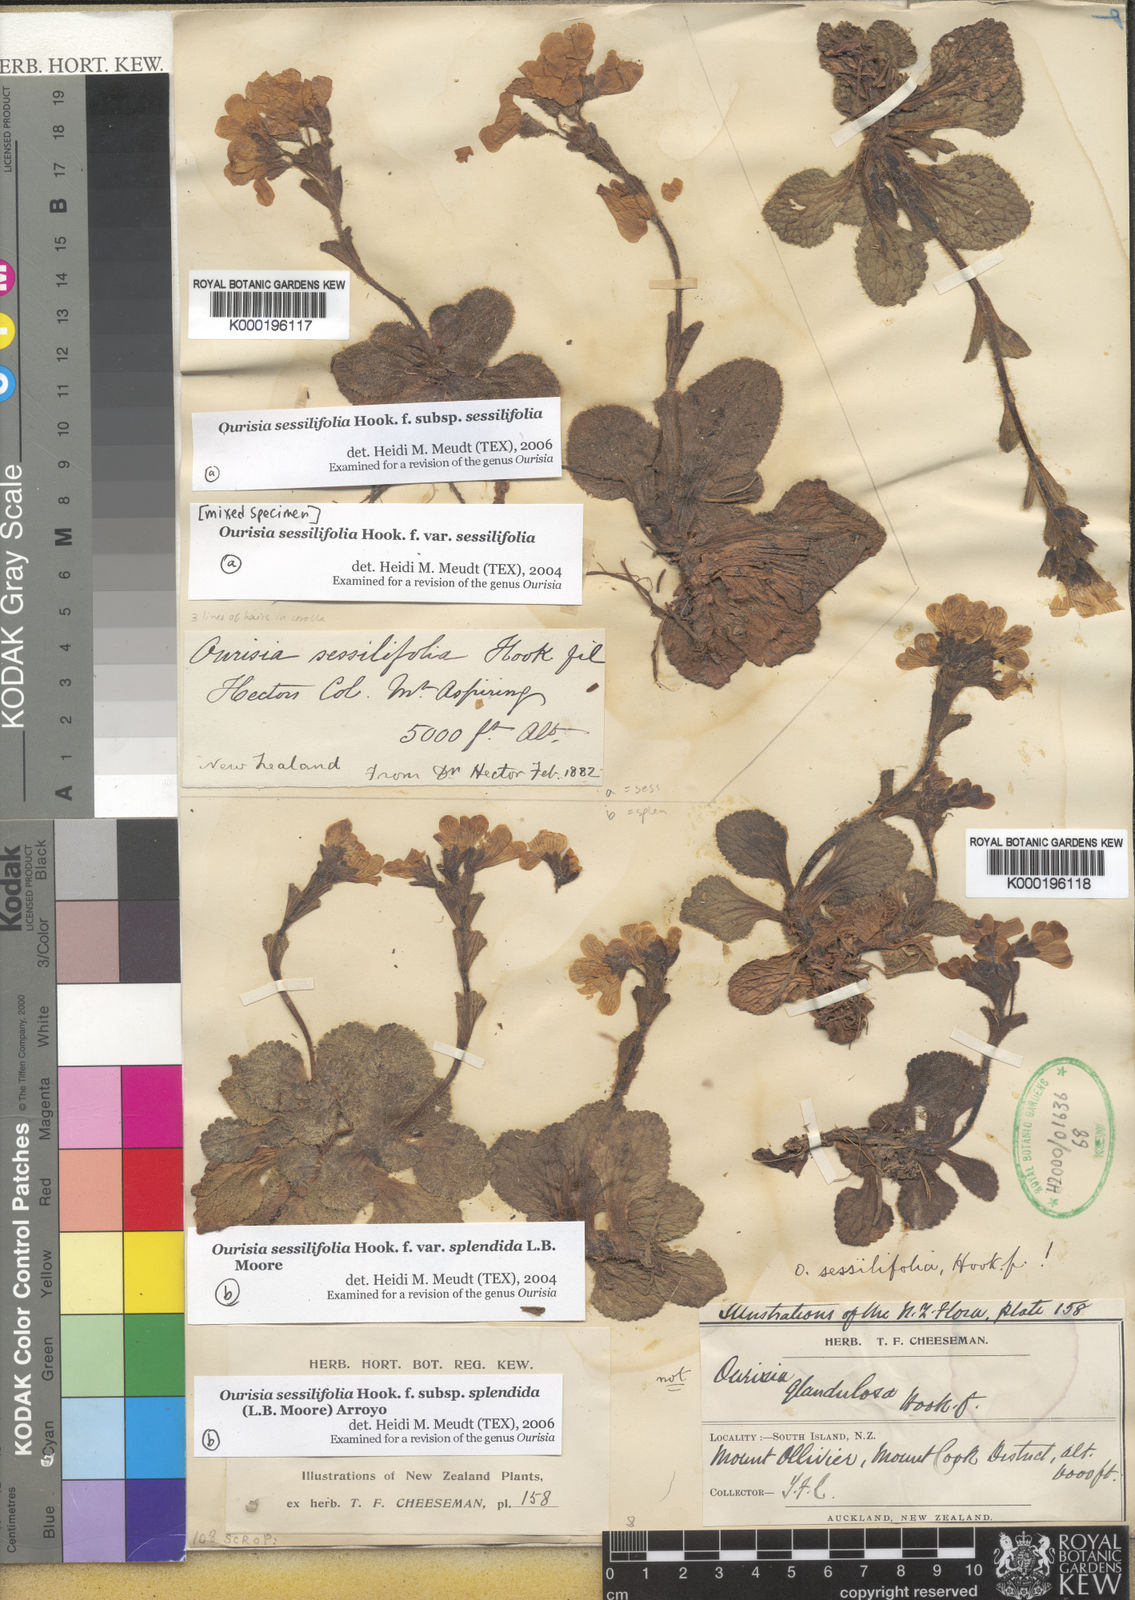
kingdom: Plantae
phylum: Tracheophyta
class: Magnoliopsida
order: Lamiales
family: Plantaginaceae
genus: Ourisia
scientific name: Ourisia sessilifolia
